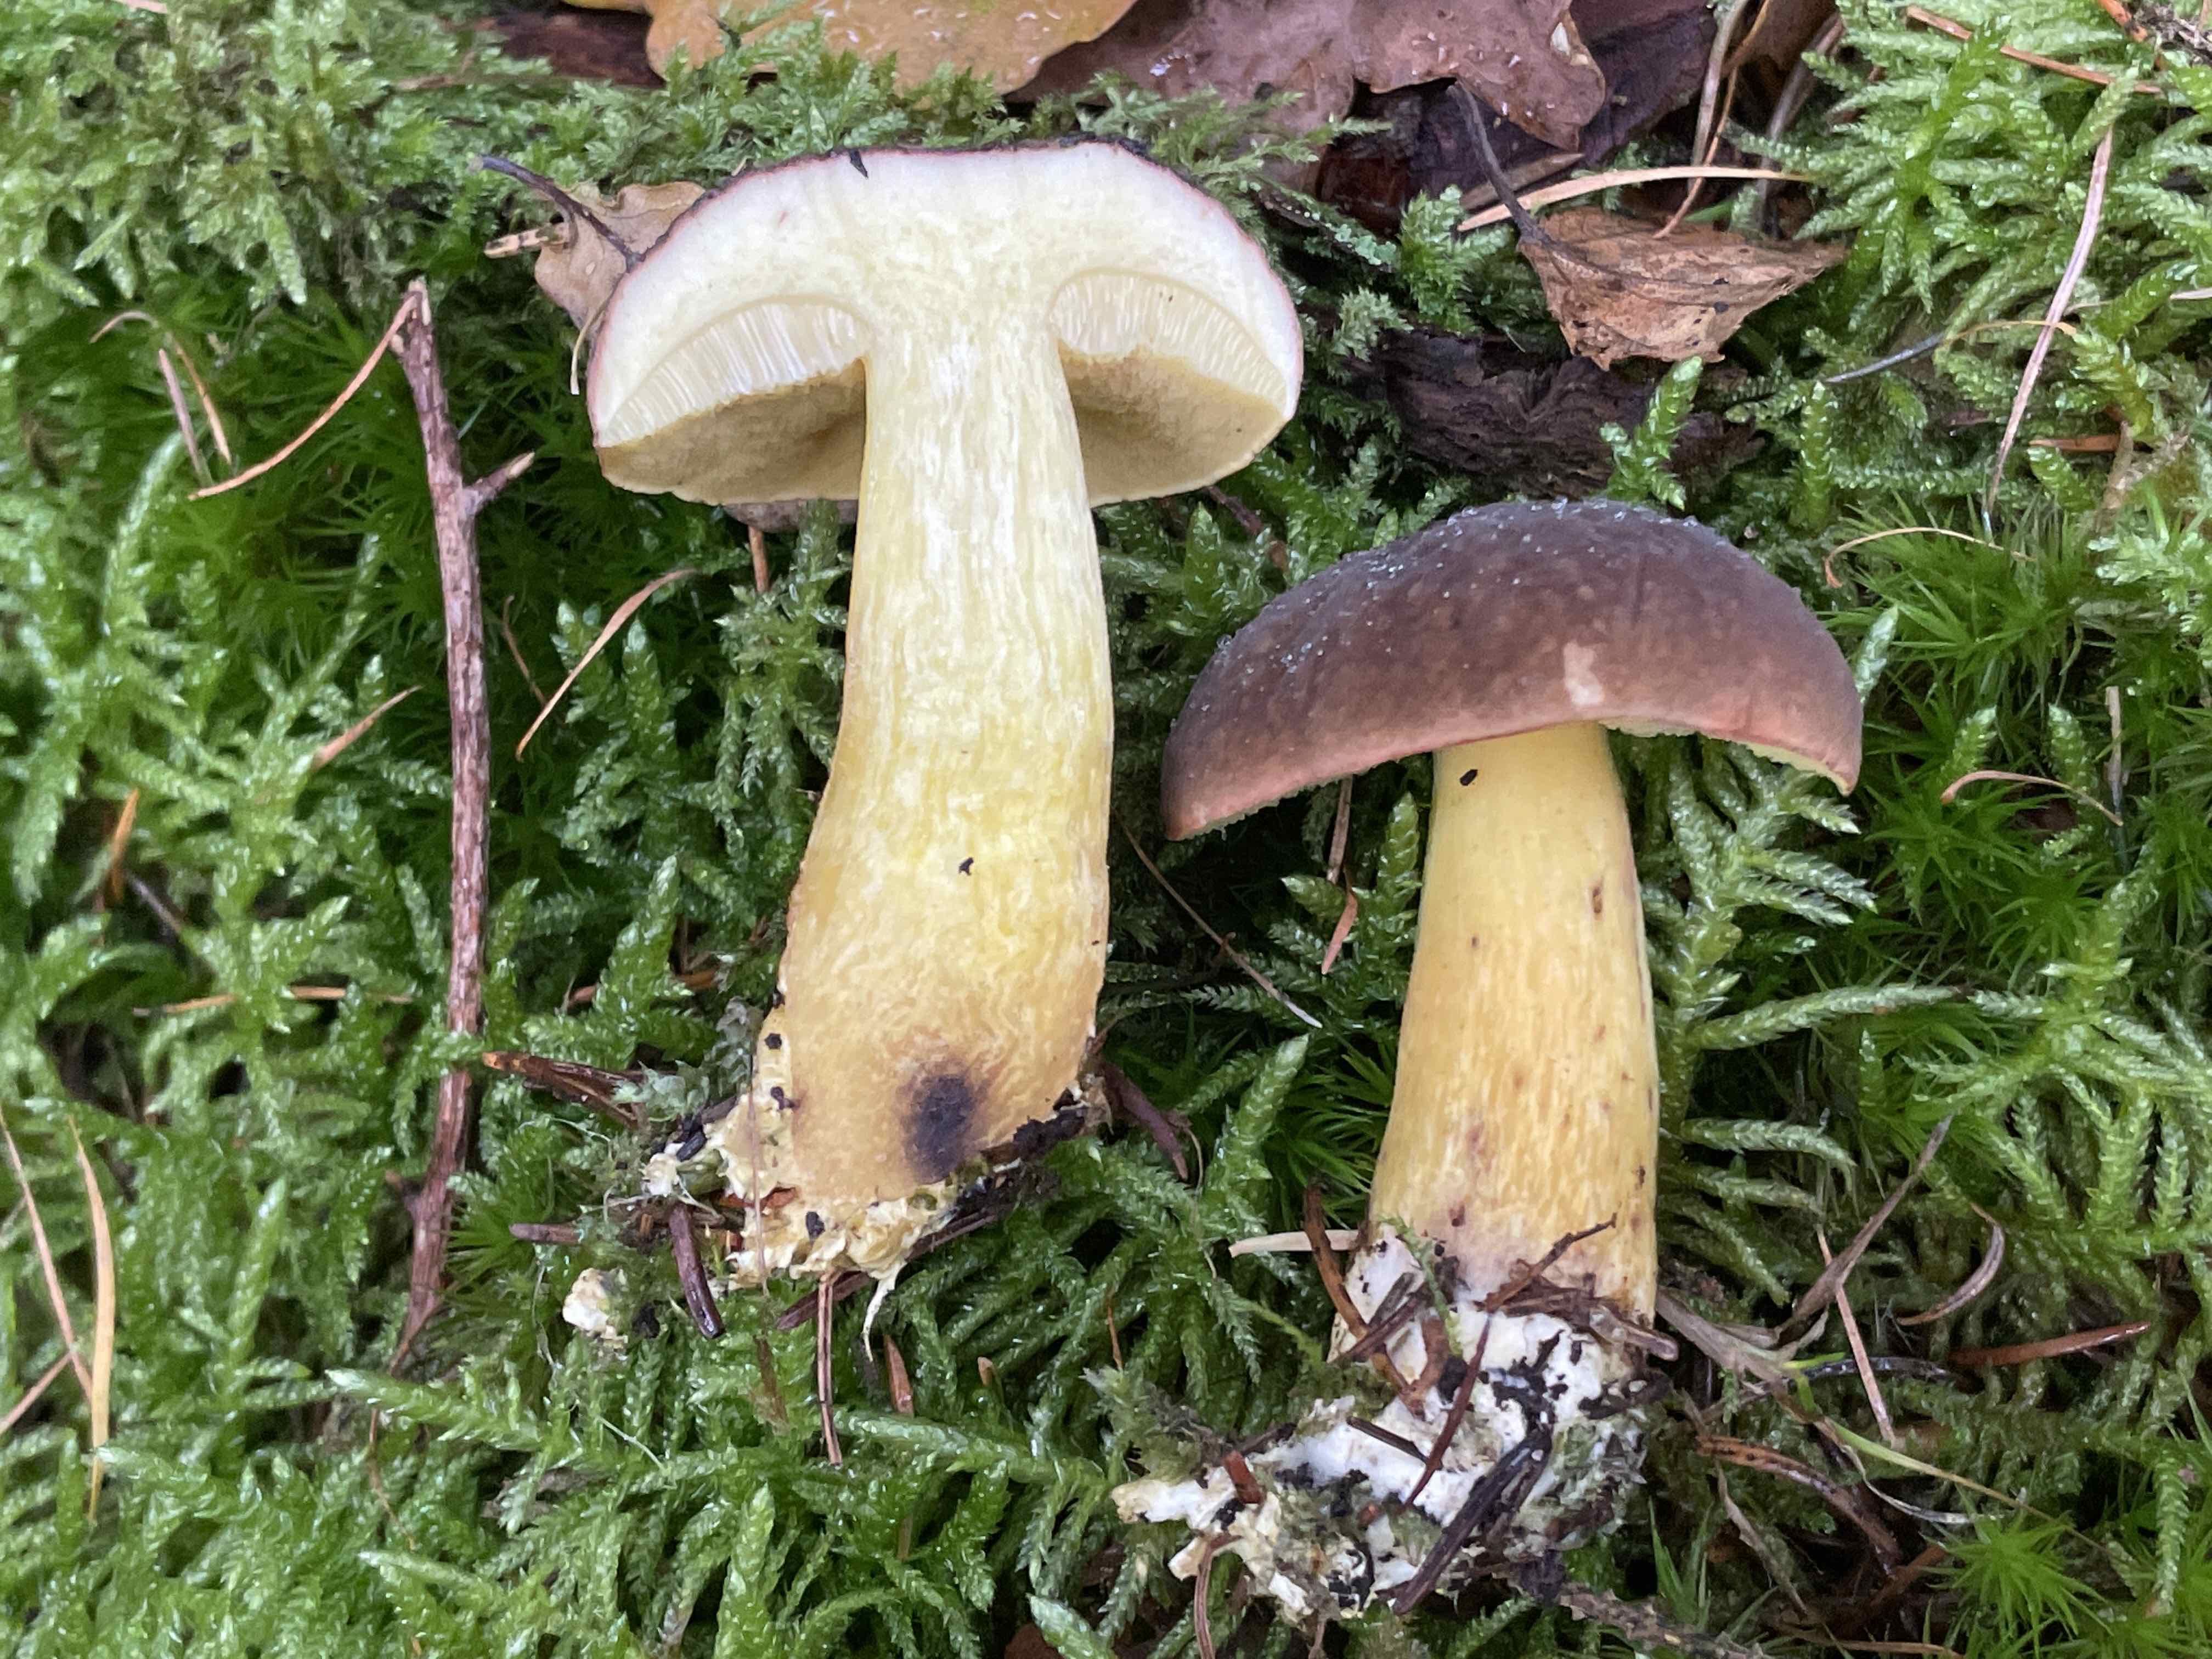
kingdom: Fungi
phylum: Basidiomycota
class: Agaricomycetes
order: Boletales
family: Boletaceae
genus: Xerocomellus
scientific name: Xerocomellus pruinatus
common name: dugget rørhat
